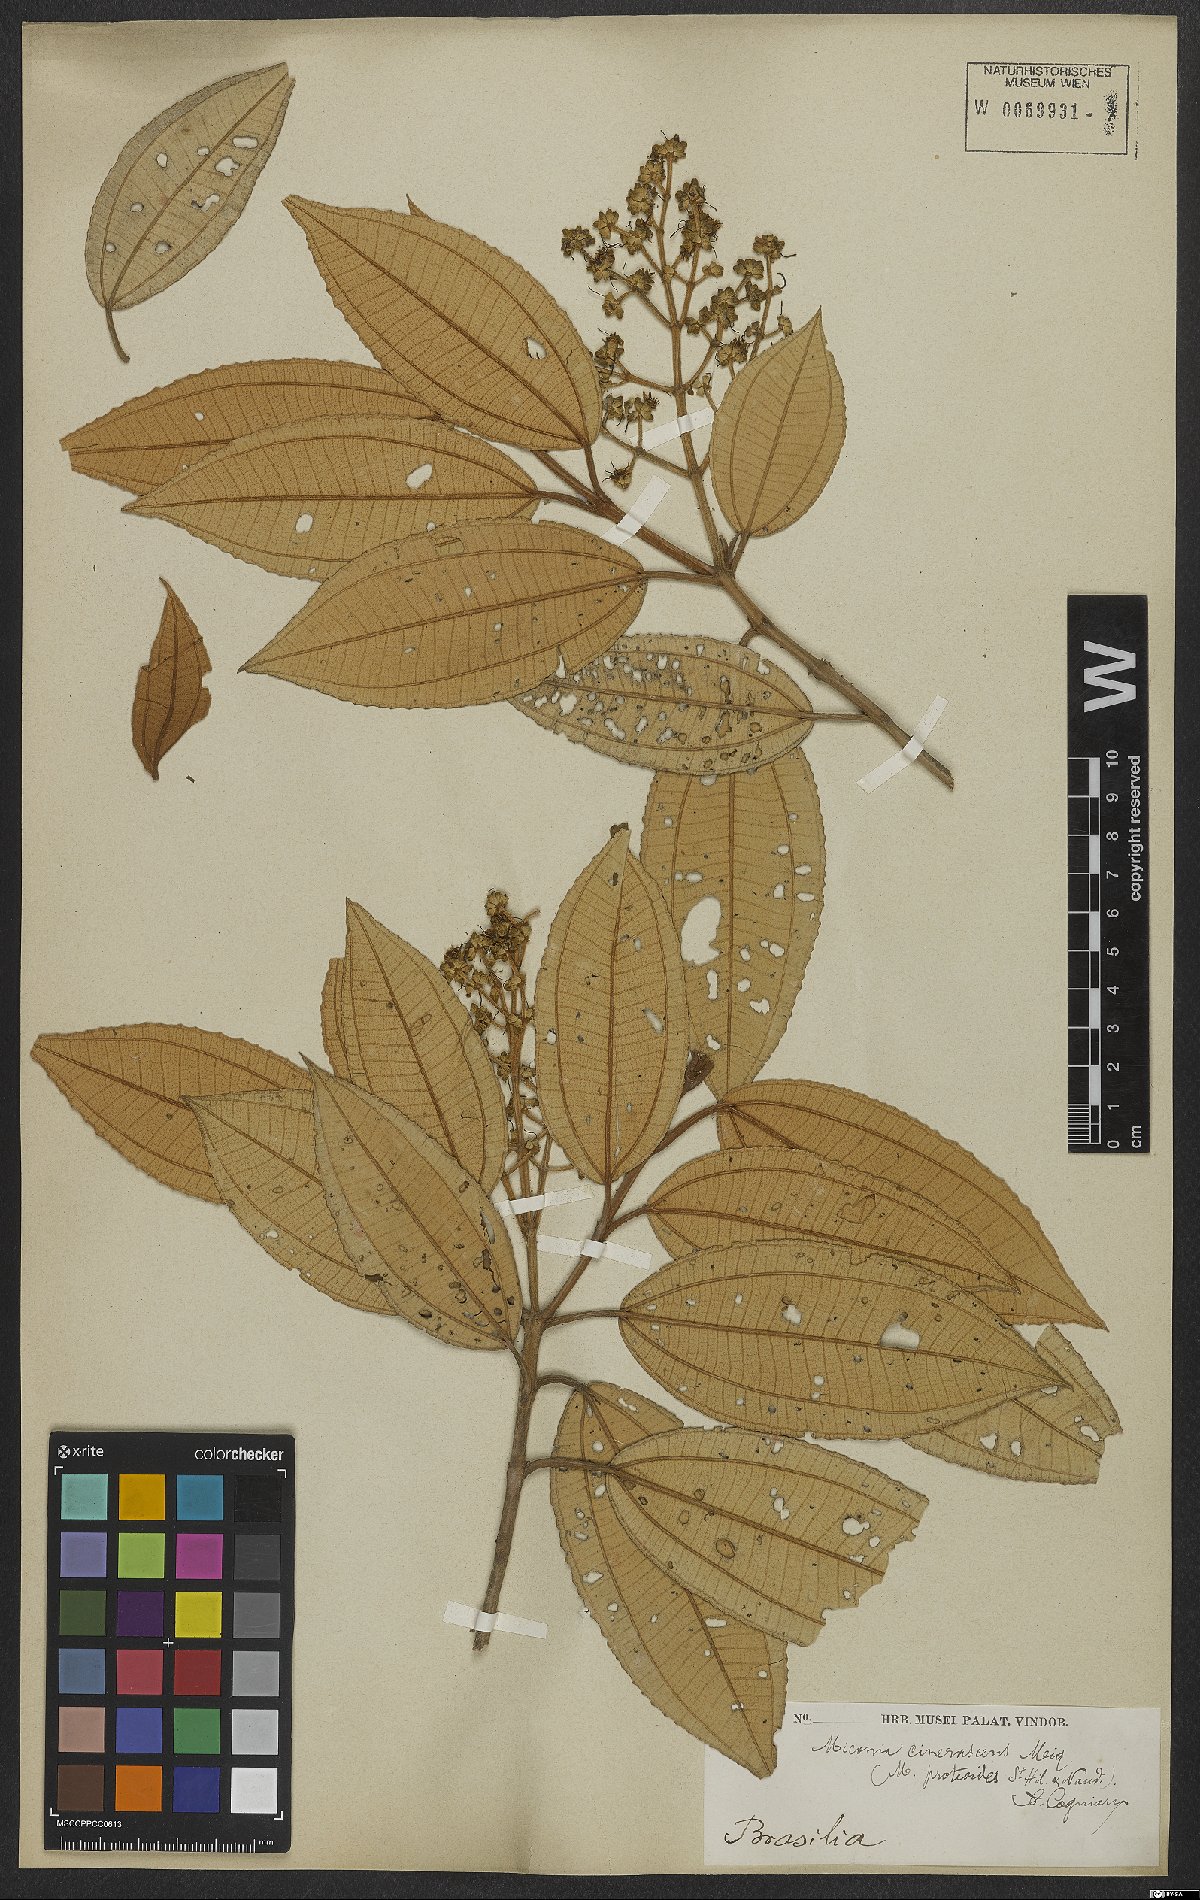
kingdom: Plantae
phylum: Tracheophyta
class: Magnoliopsida
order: Myrtales
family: Melastomataceae
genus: Miconia
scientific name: Miconia cinerascens
